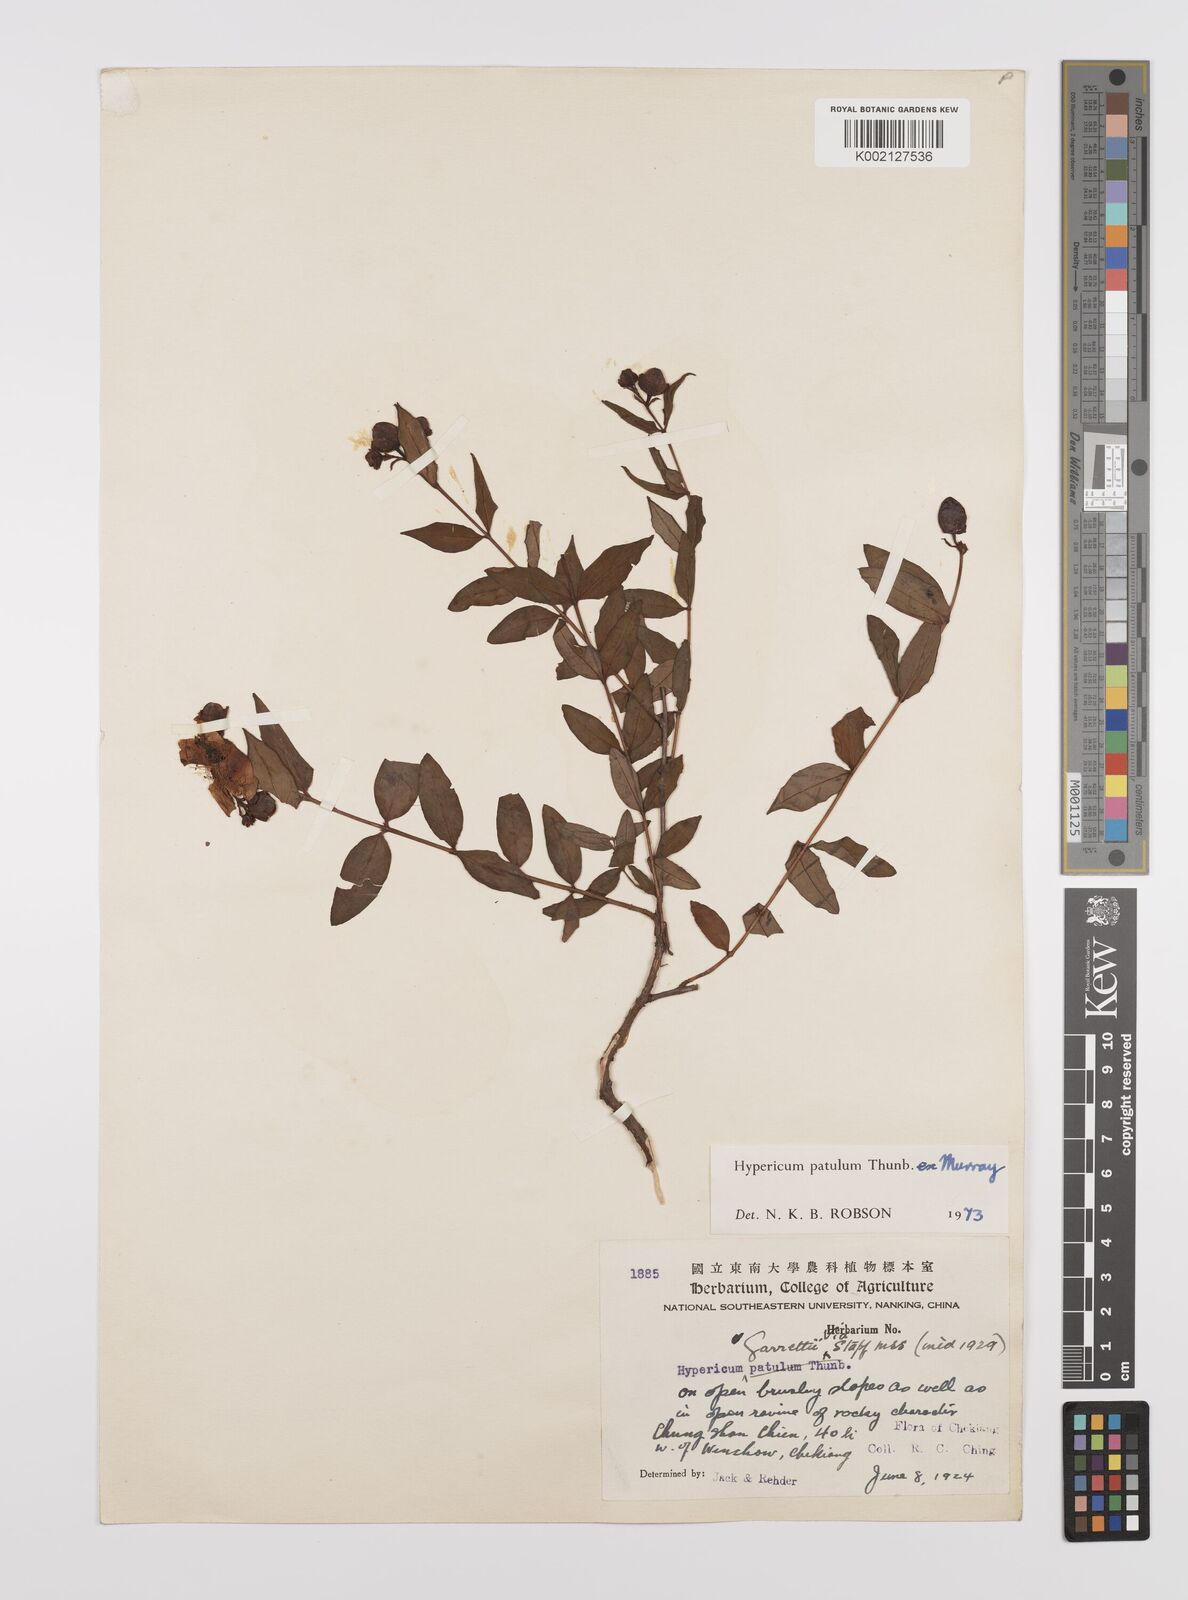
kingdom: Plantae
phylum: Tracheophyta
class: Magnoliopsida
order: Malpighiales
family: Hypericaceae
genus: Hypericum
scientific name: Hypericum patulum
